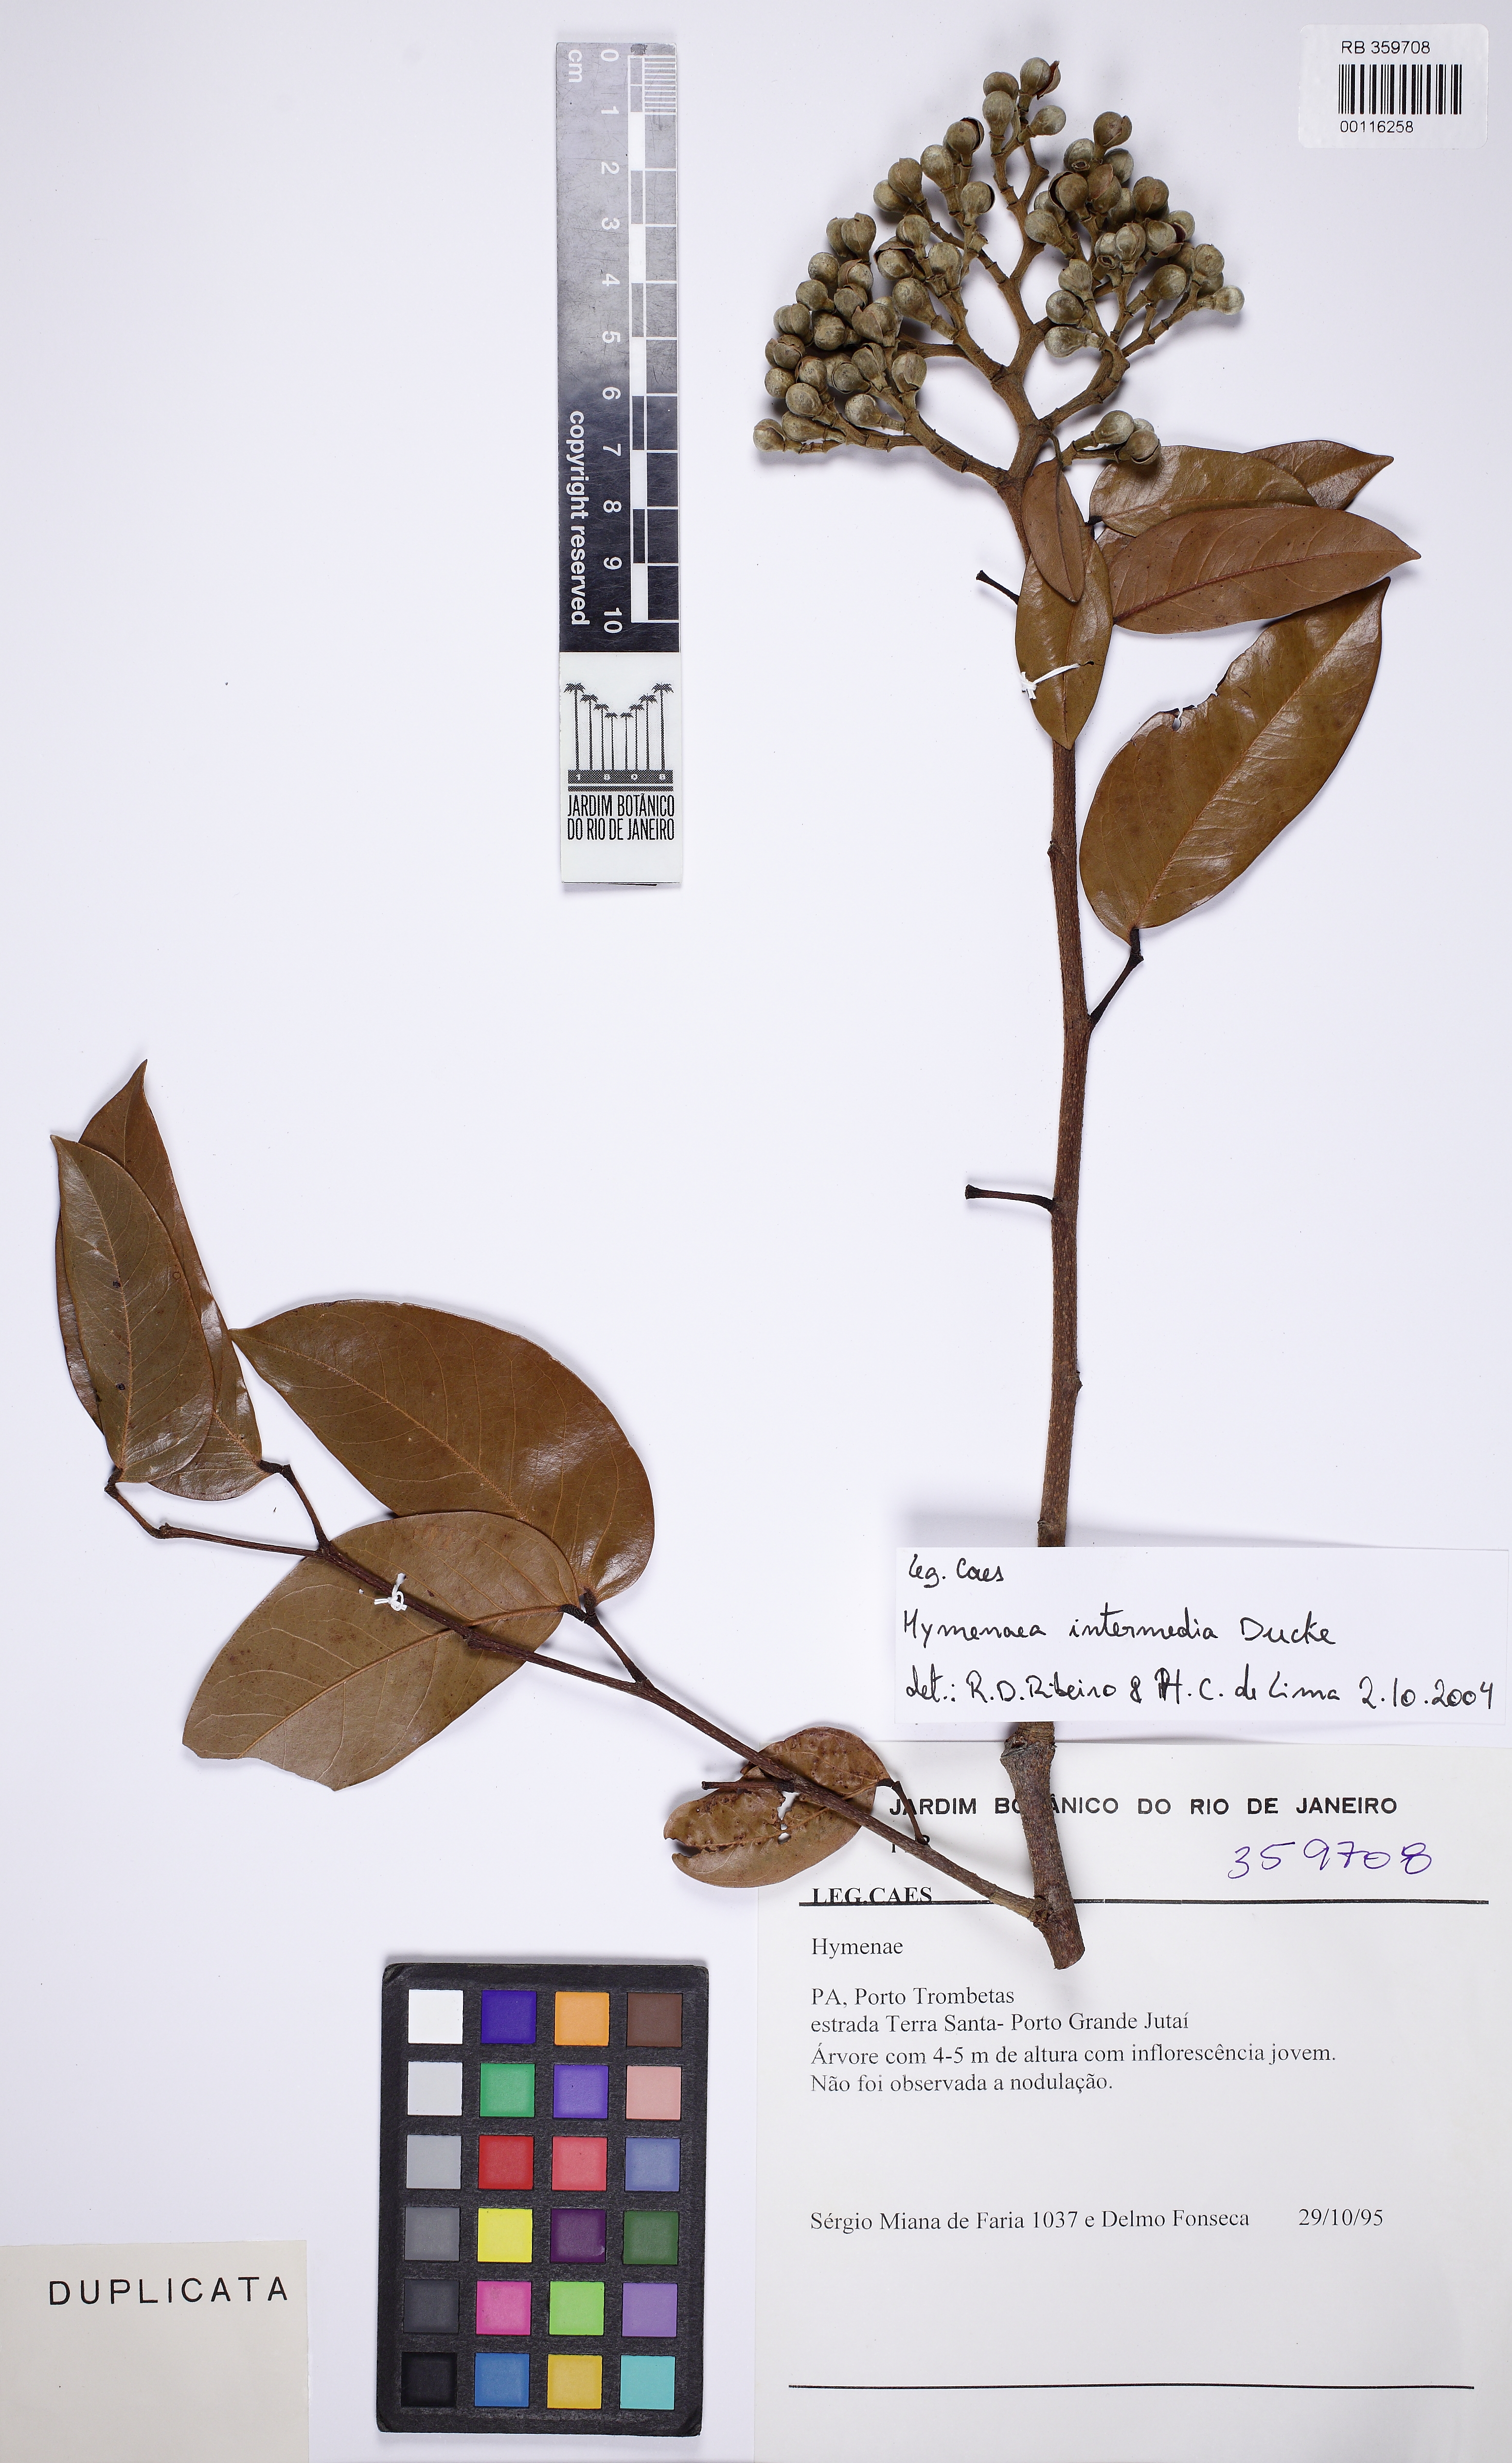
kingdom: Plantae
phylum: Tracheophyta
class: Magnoliopsida
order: Fabales
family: Fabaceae
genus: Hymenaea
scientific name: Hymenaea intermedia
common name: South american copal
